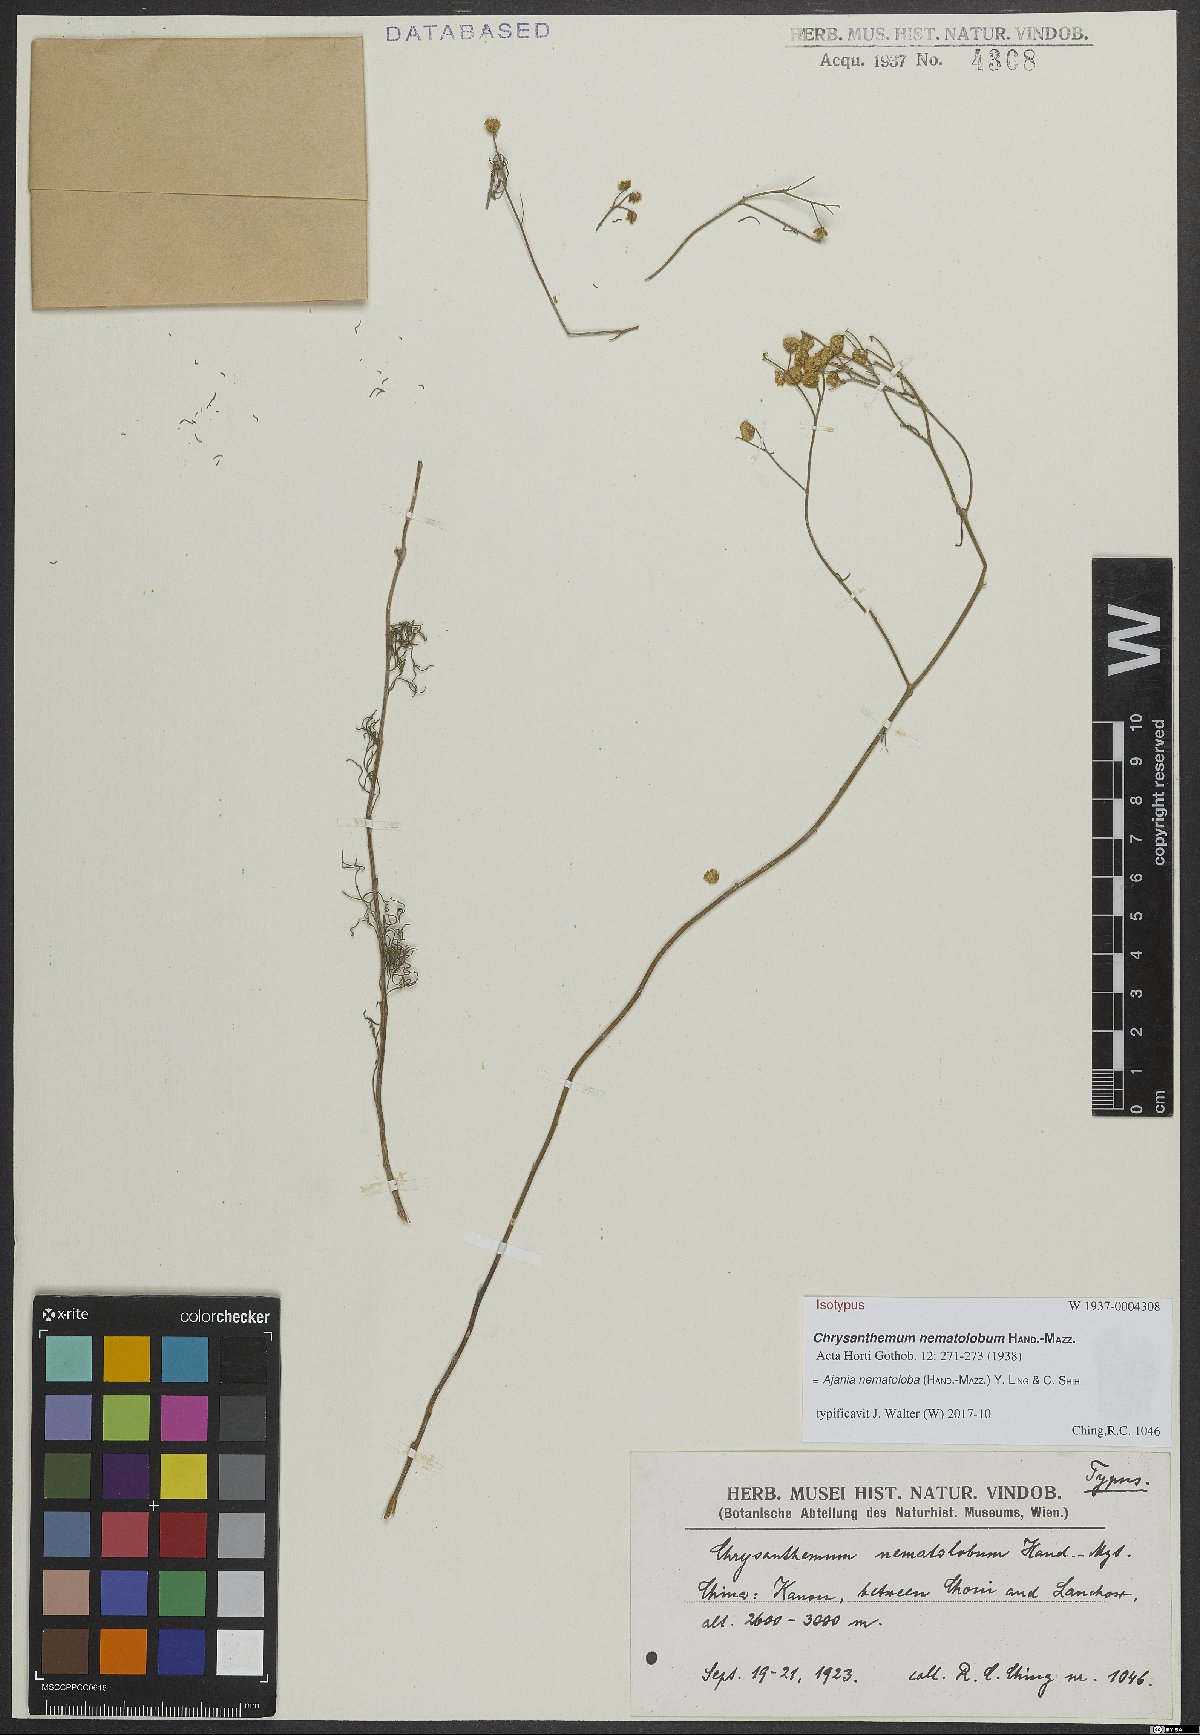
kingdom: Plantae
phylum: Tracheophyta
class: Magnoliopsida
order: Asterales
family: Asteraceae
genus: Ajania
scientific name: Ajania nematoloba
